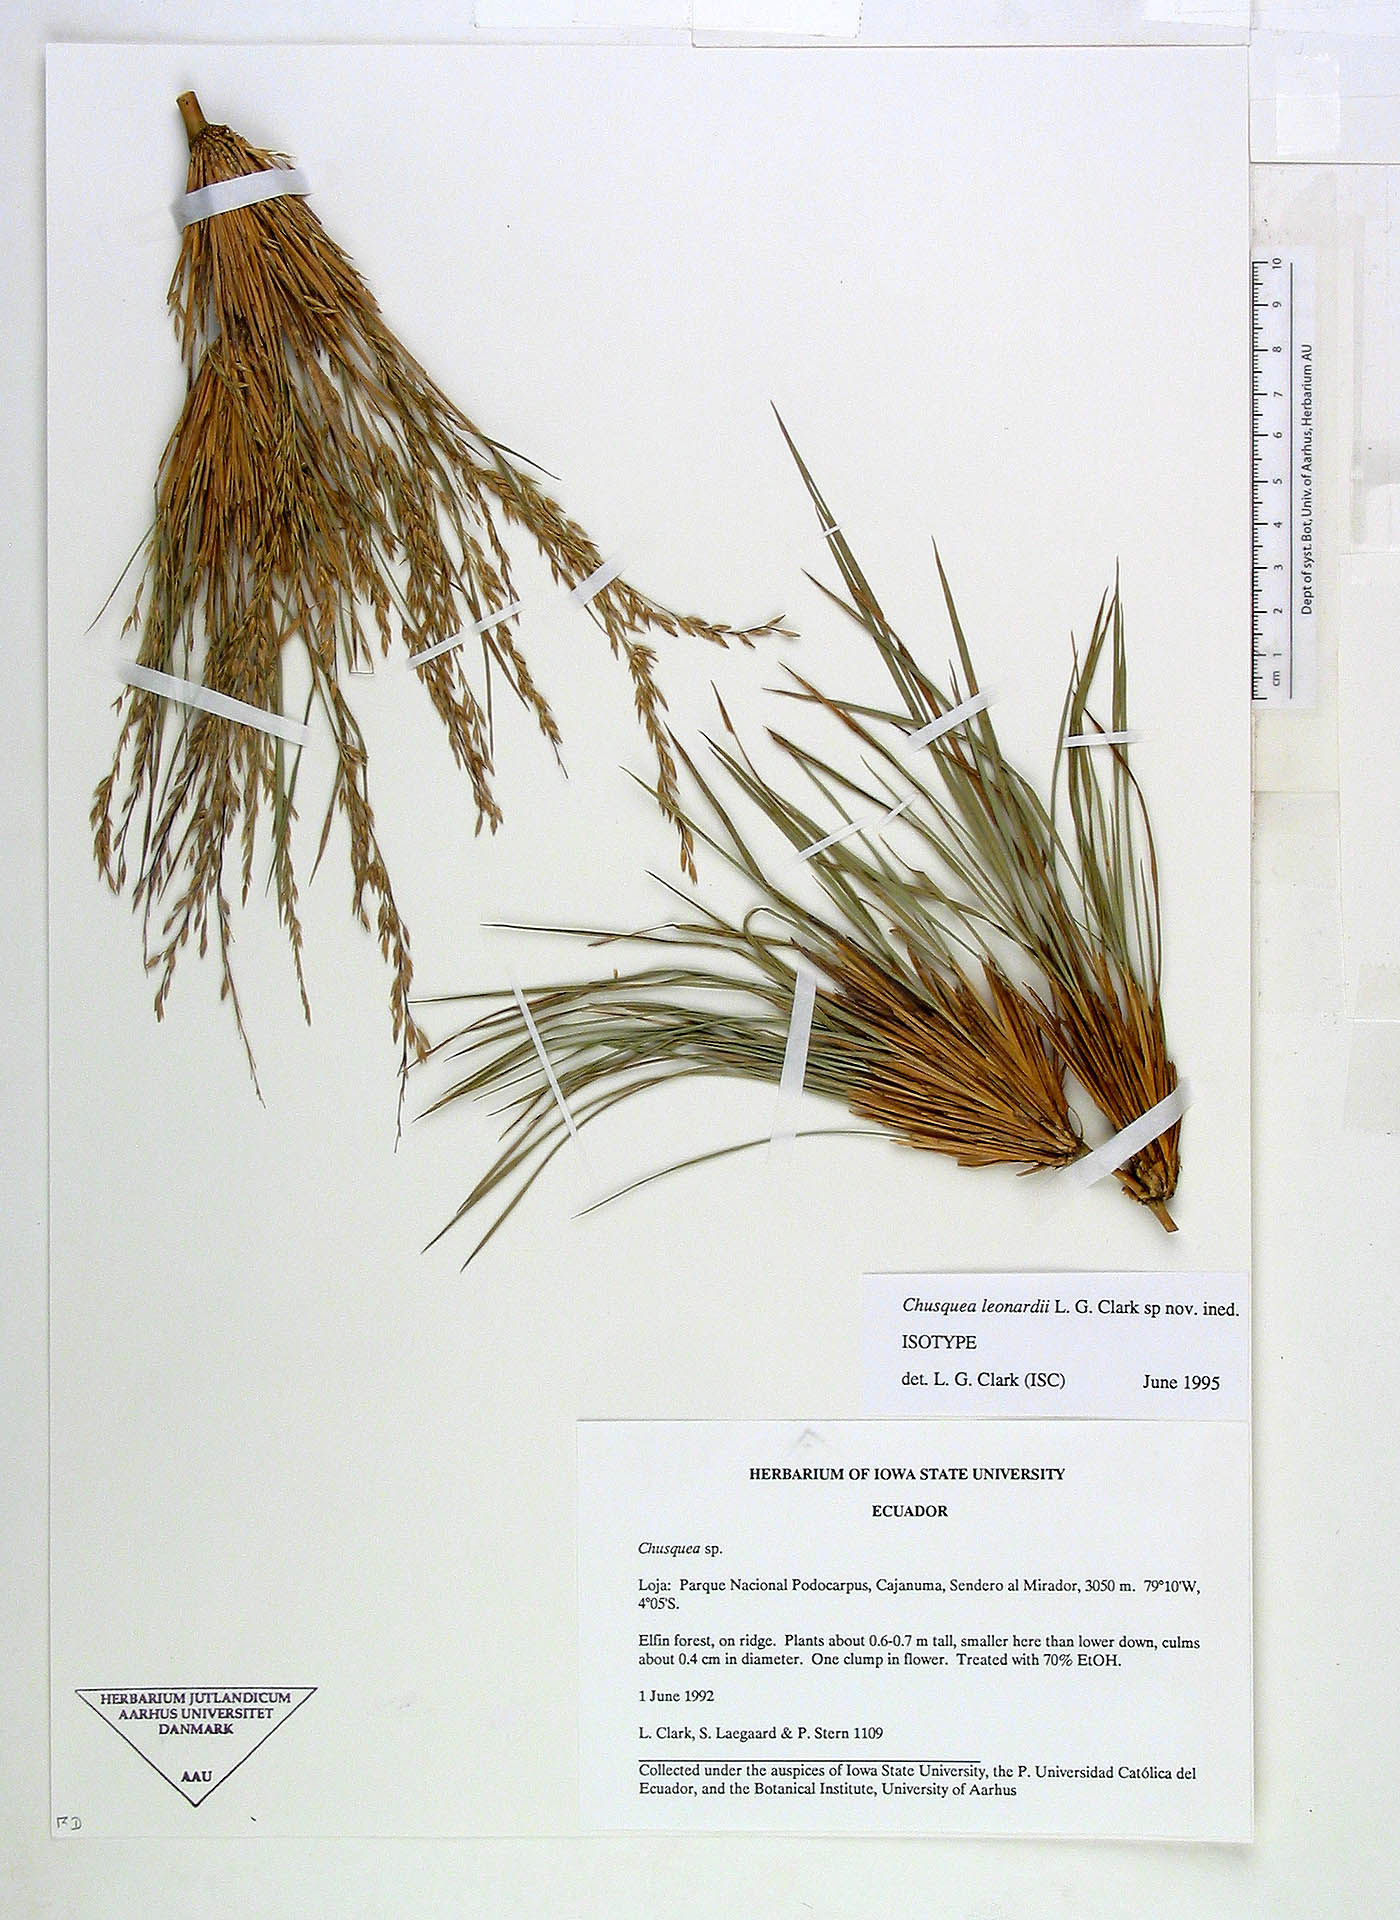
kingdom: Plantae
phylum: Tracheophyta
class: Liliopsida
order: Poales
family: Poaceae
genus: Chusquea
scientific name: Chusquea leonardiorum
